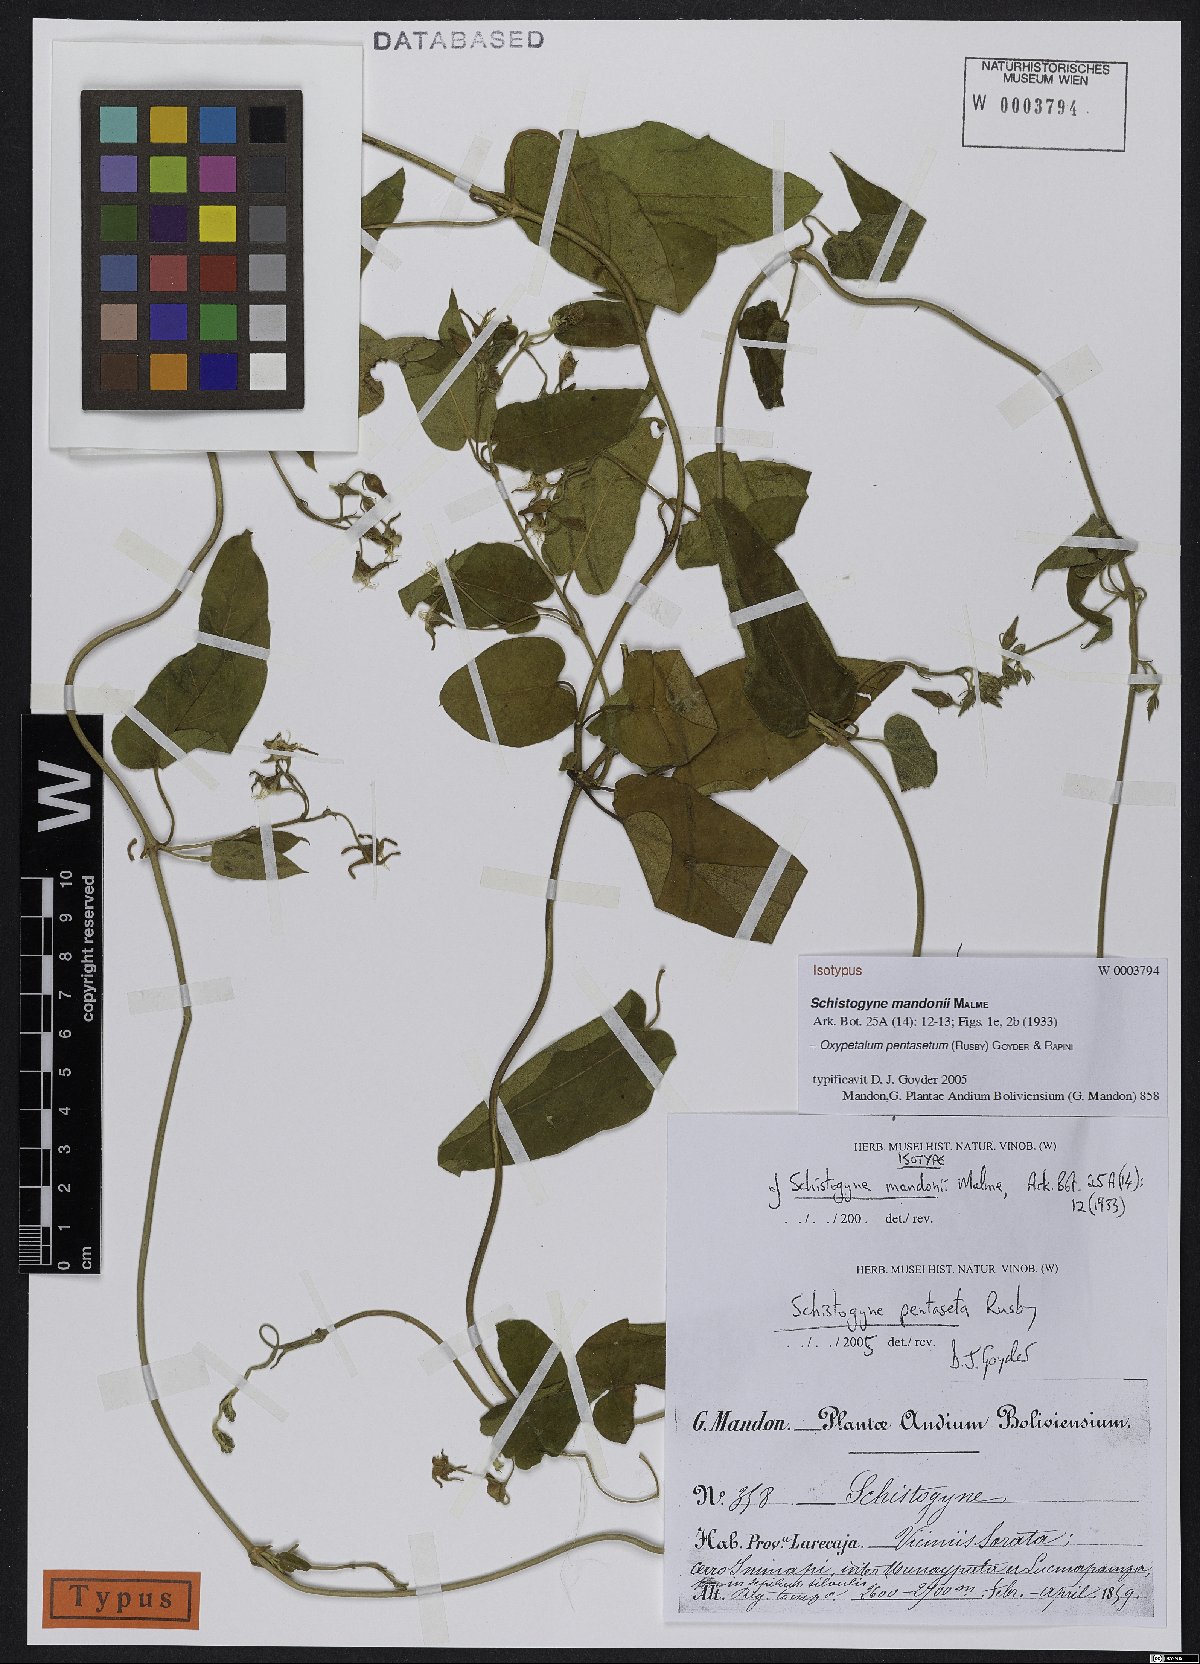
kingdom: Plantae
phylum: Tracheophyta
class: Magnoliopsida
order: Gentianales
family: Apocynaceae
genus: Oxypetalum
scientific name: Oxypetalum pentasetum
